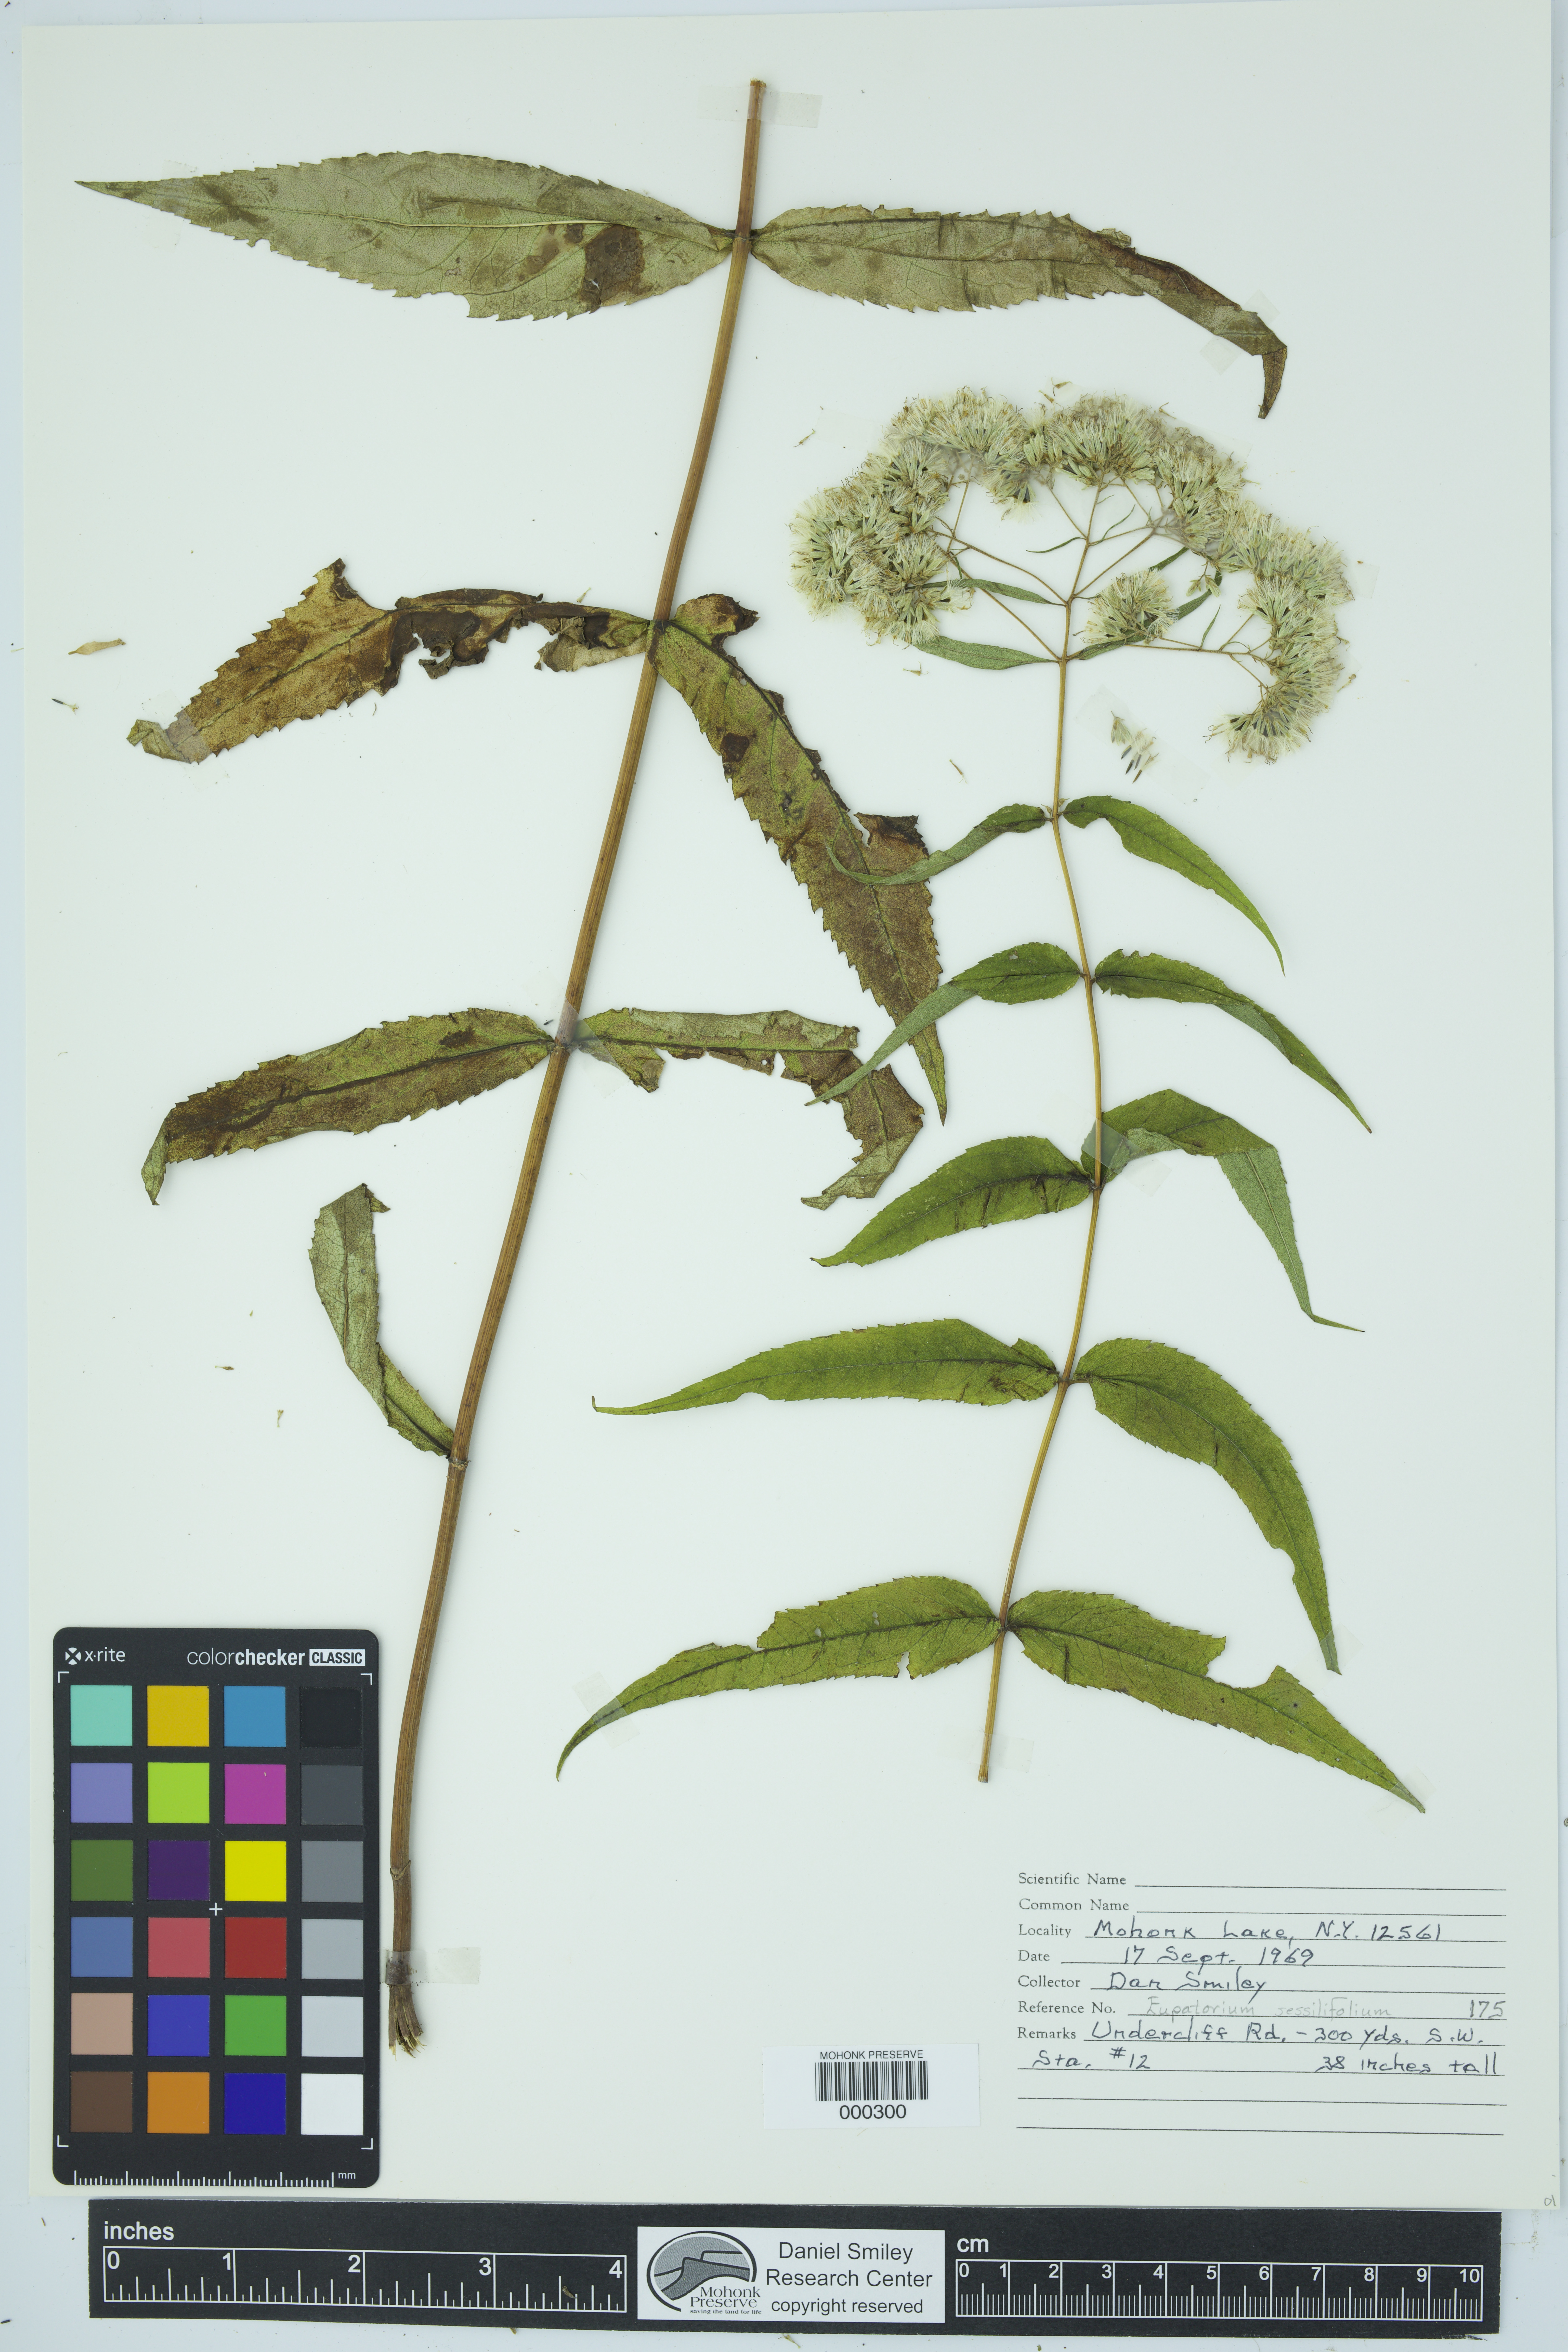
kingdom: Plantae
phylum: Tracheophyta
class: Magnoliopsida
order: Asterales
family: Asteraceae
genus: Eupatorium
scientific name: Eupatorium sessilifolium
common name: Upland boneset
